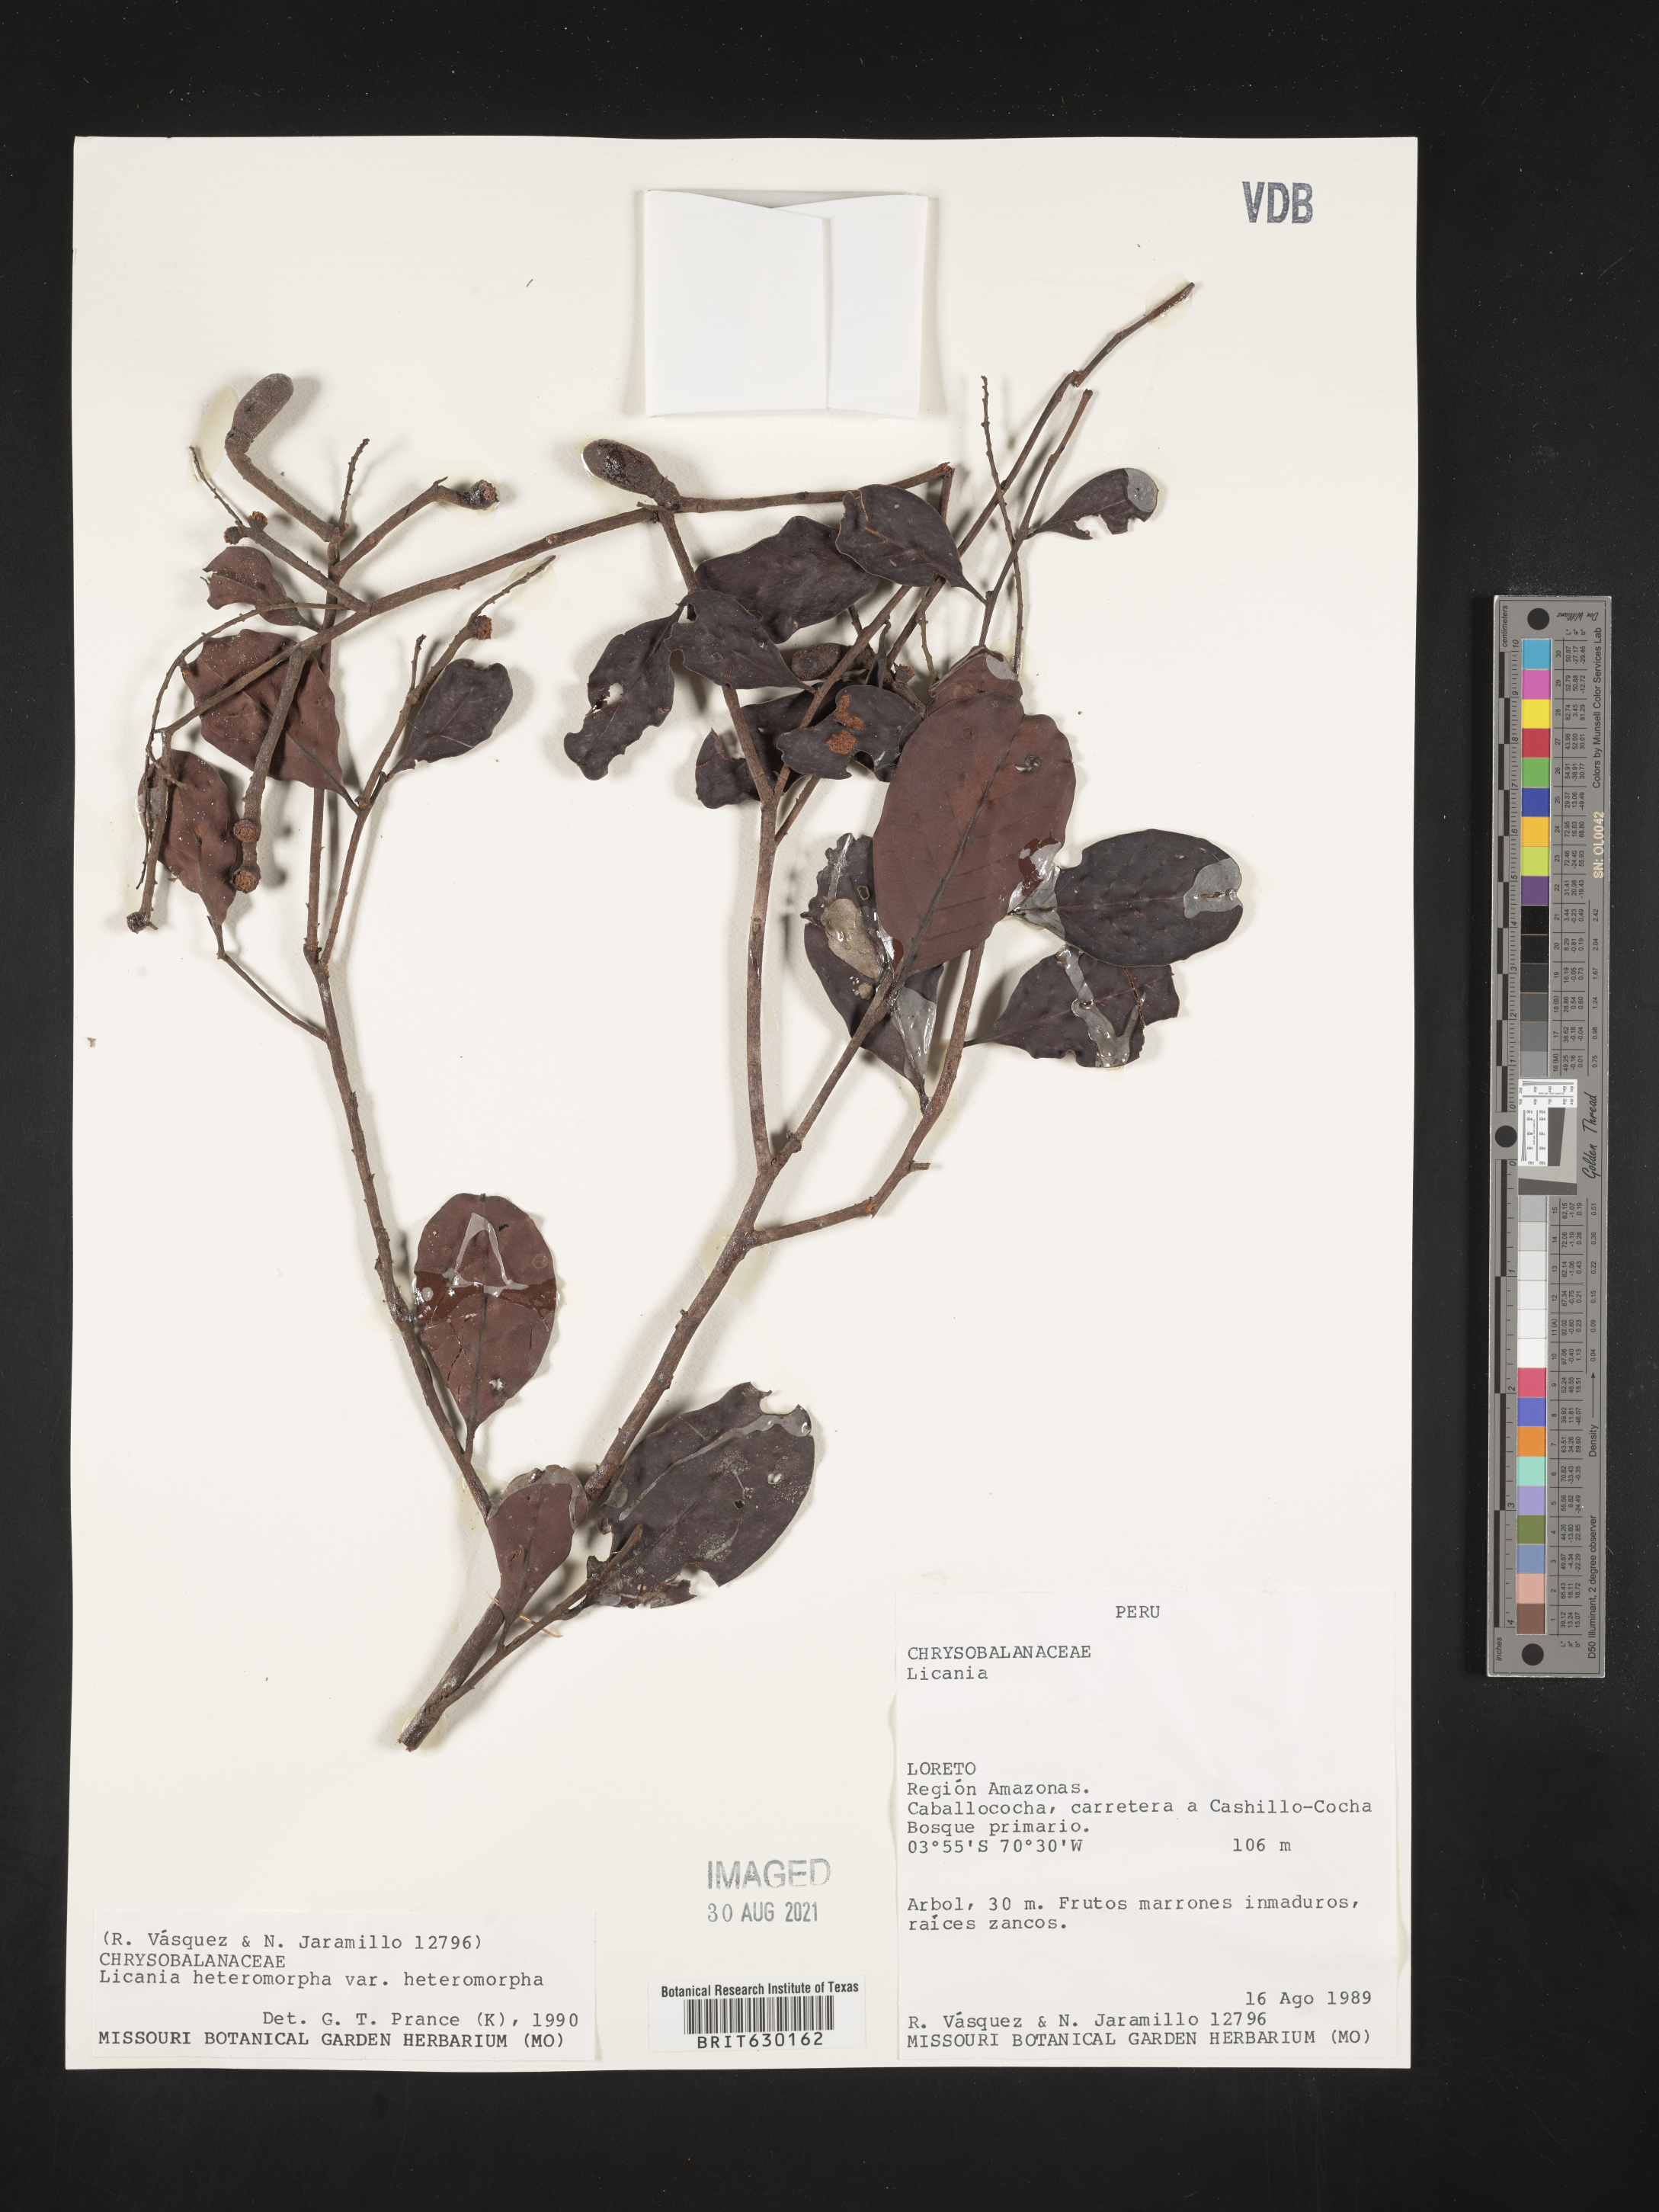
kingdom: Plantae
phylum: Tracheophyta
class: Magnoliopsida
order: Malpighiales
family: Chrysobalanaceae
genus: Hymenopus
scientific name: Hymenopus heteromorphus
